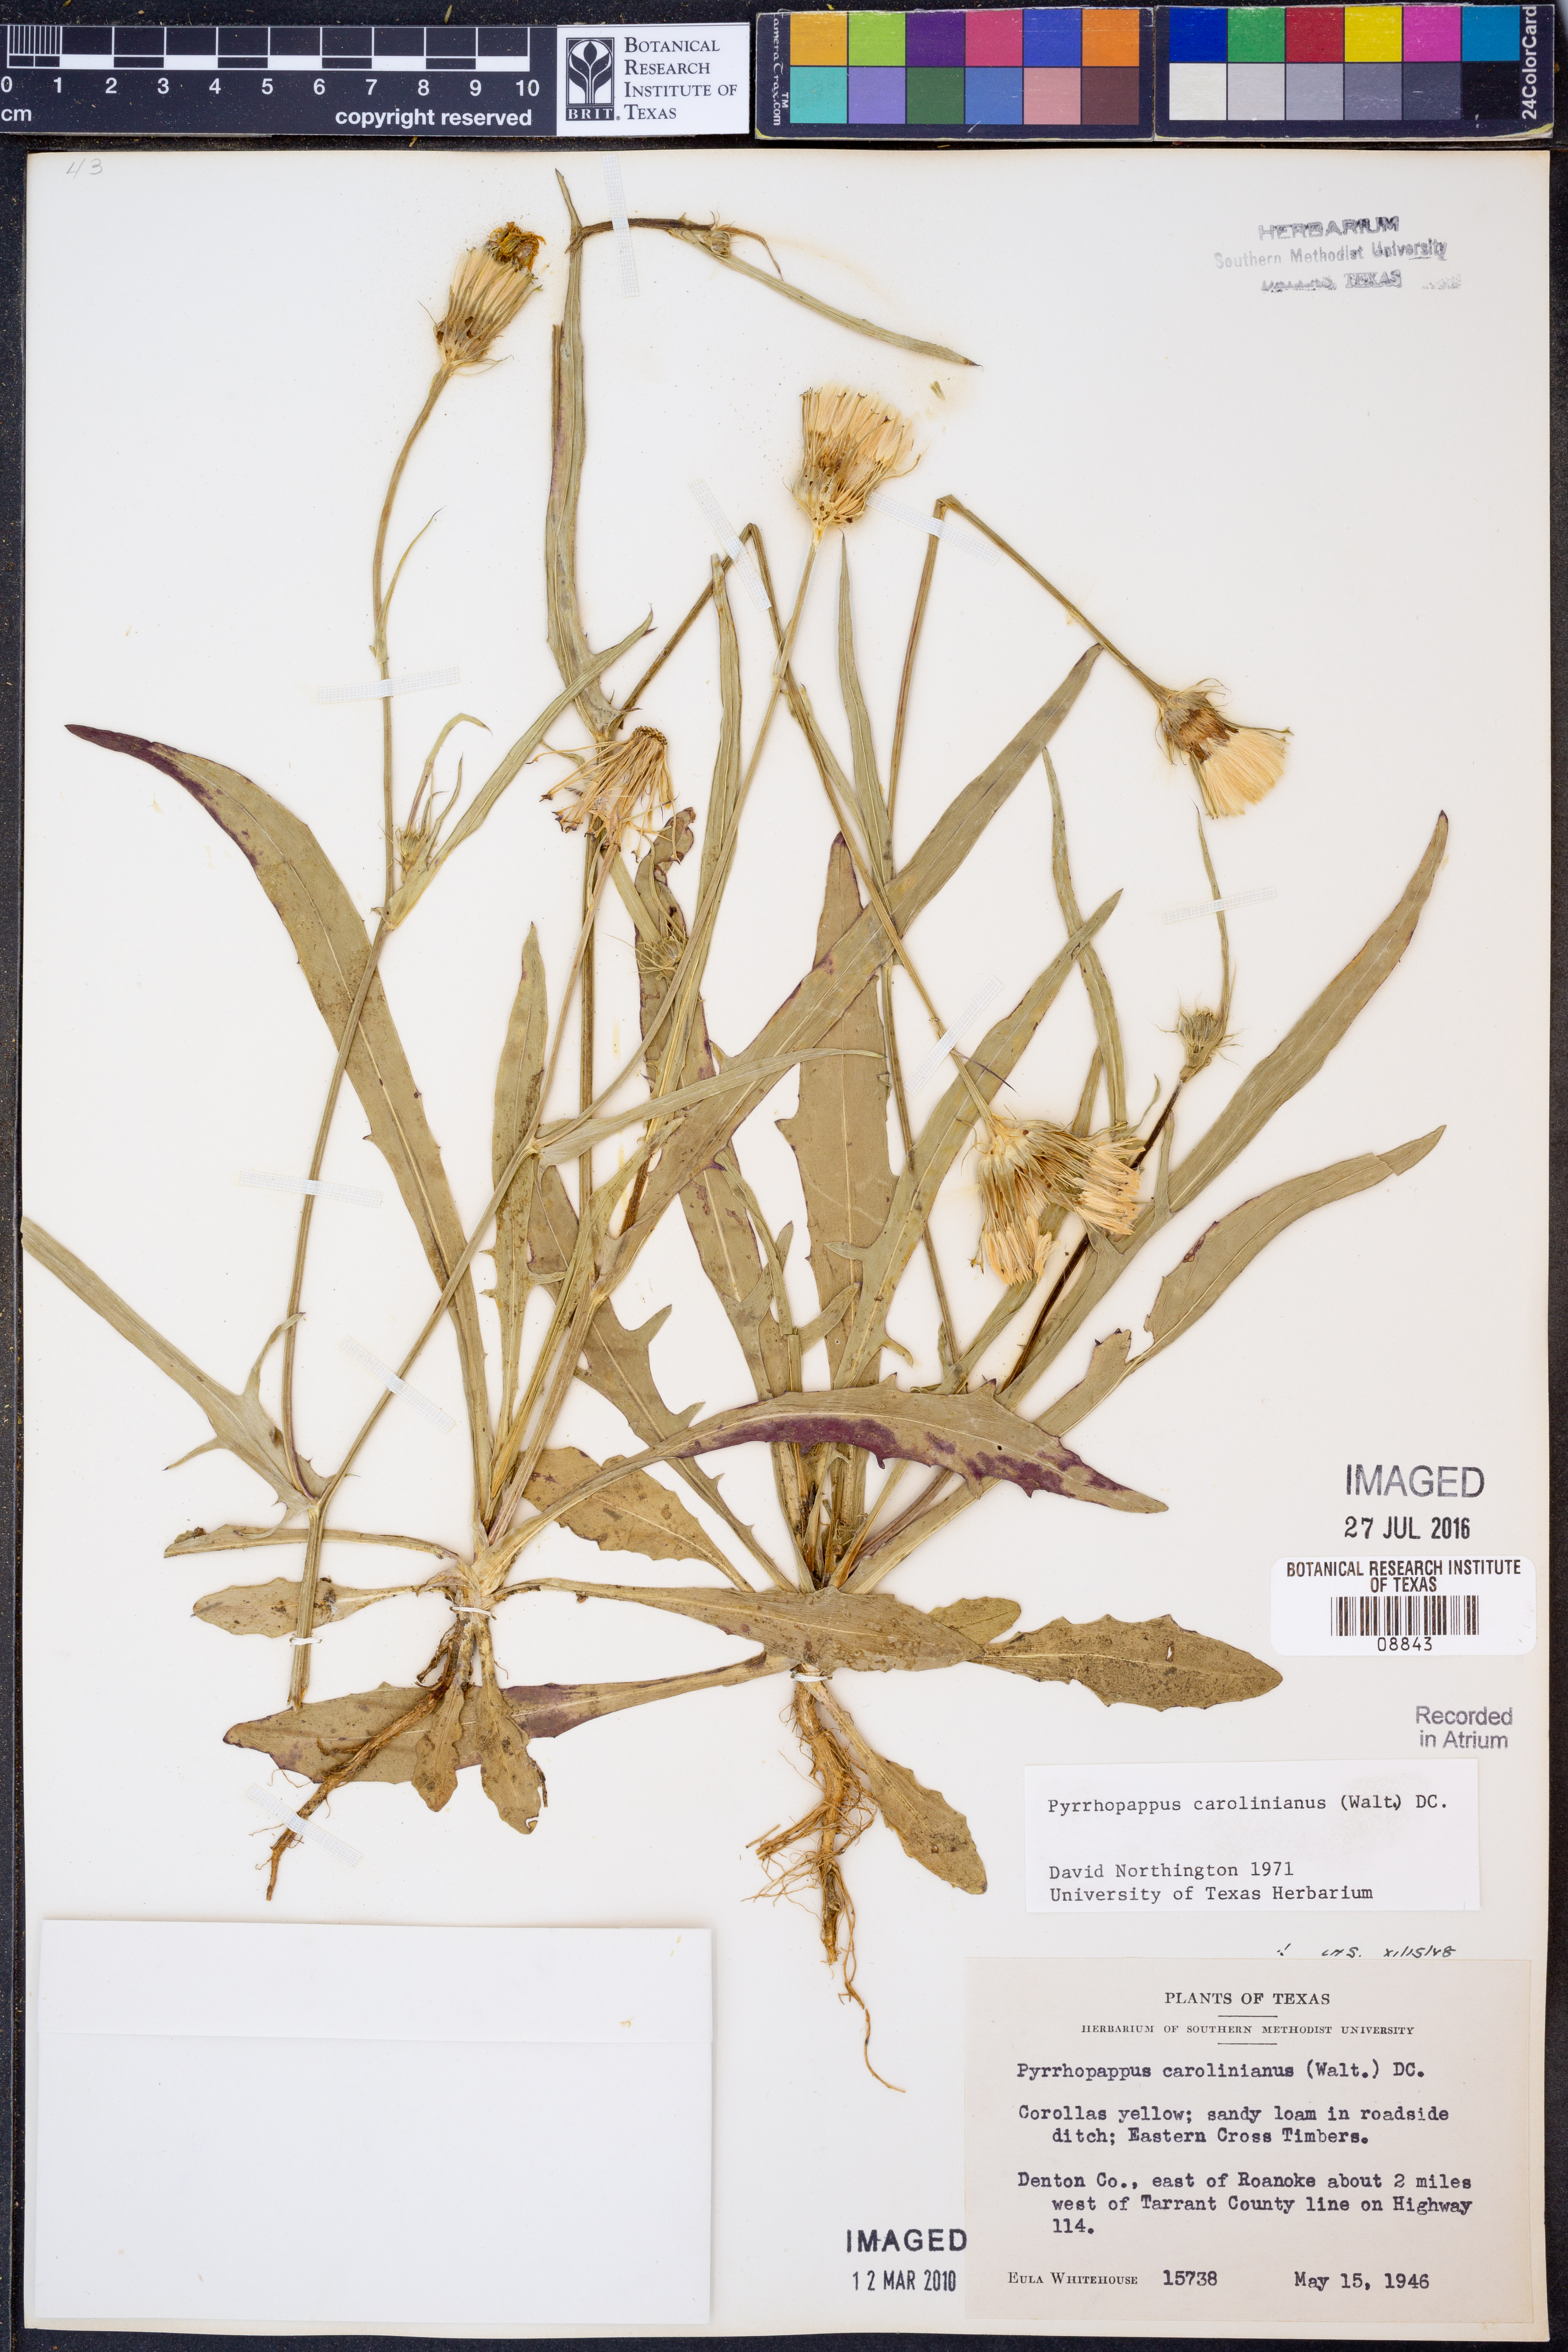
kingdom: Plantae
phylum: Tracheophyta
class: Magnoliopsida
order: Asterales
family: Asteraceae
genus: Pyrrhopappus
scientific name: Pyrrhopappus carolinianus
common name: Carolina desert-chicory
